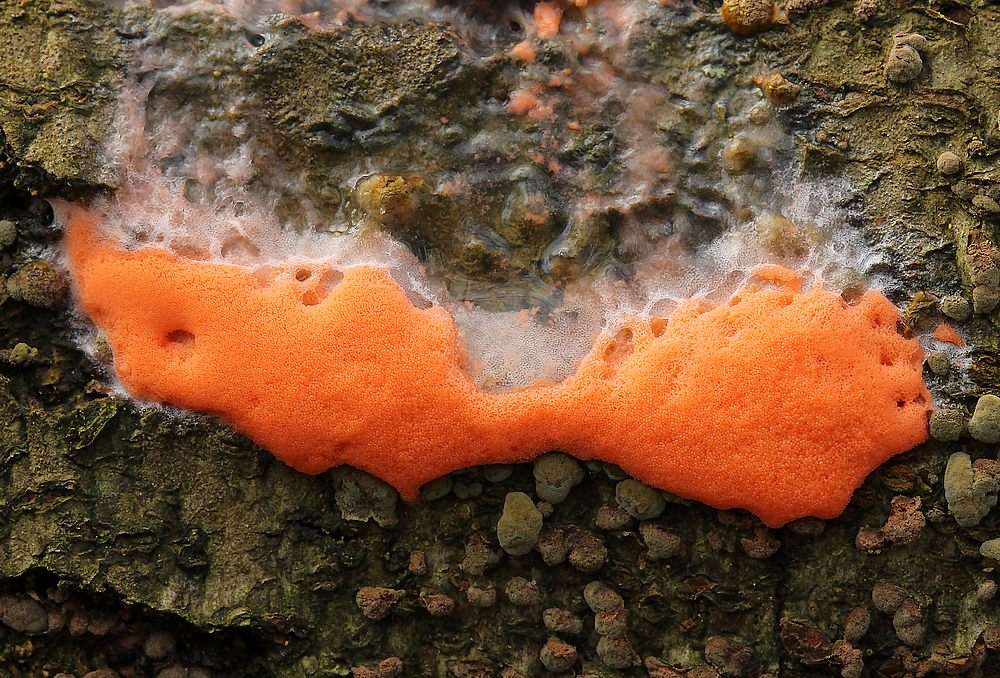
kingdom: Protozoa
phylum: Mycetozoa
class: Myxomycetes
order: Trichiales
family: Dictydiaethaliaceae
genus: Dictydiaethalium
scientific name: Dictydiaethalium plumbeum
